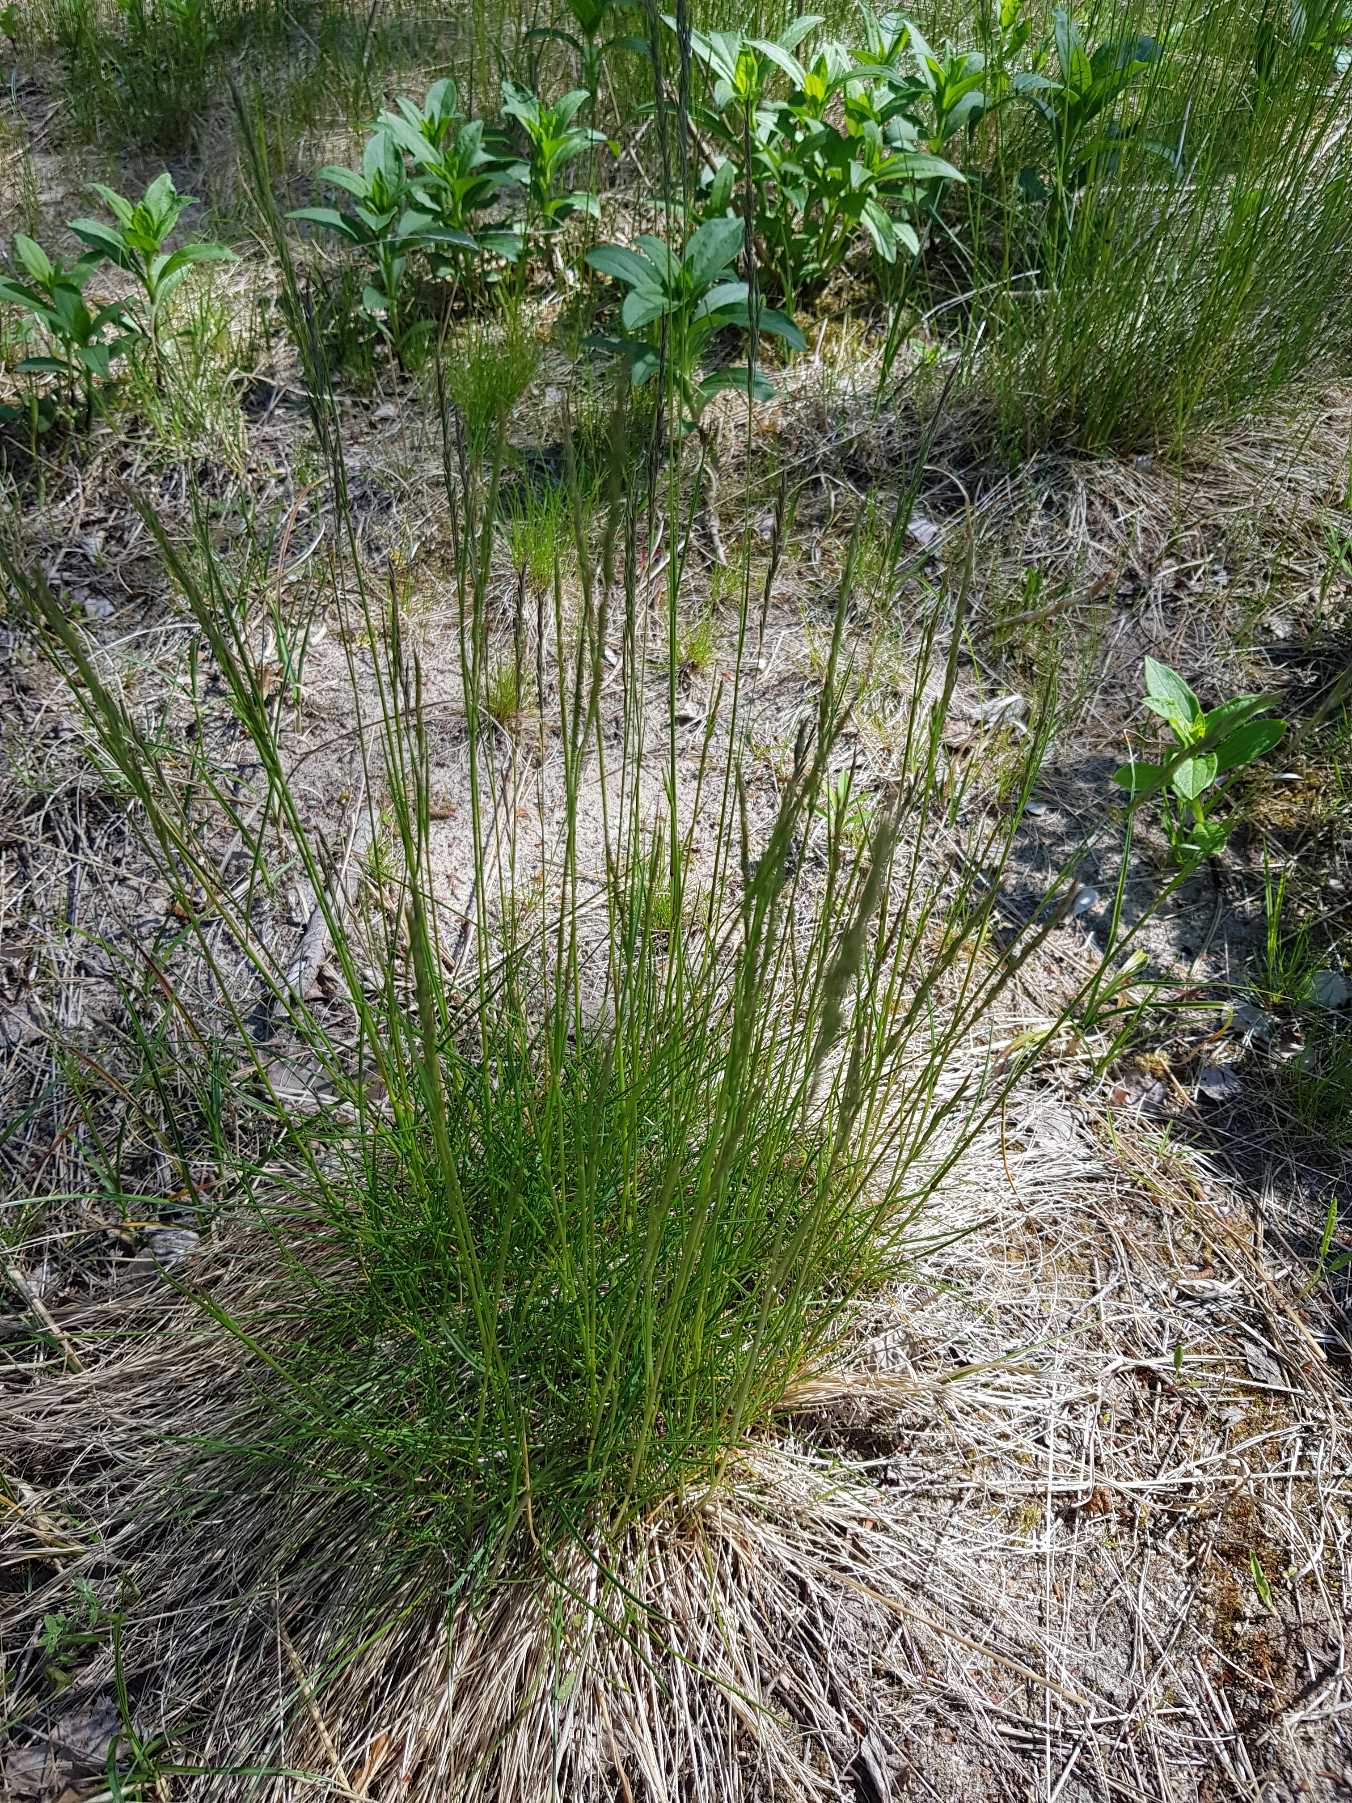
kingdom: Plantae
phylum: Tracheophyta
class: Liliopsida
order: Poales
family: Poaceae
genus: Festuca
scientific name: Festuca
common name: Svingelslægten
